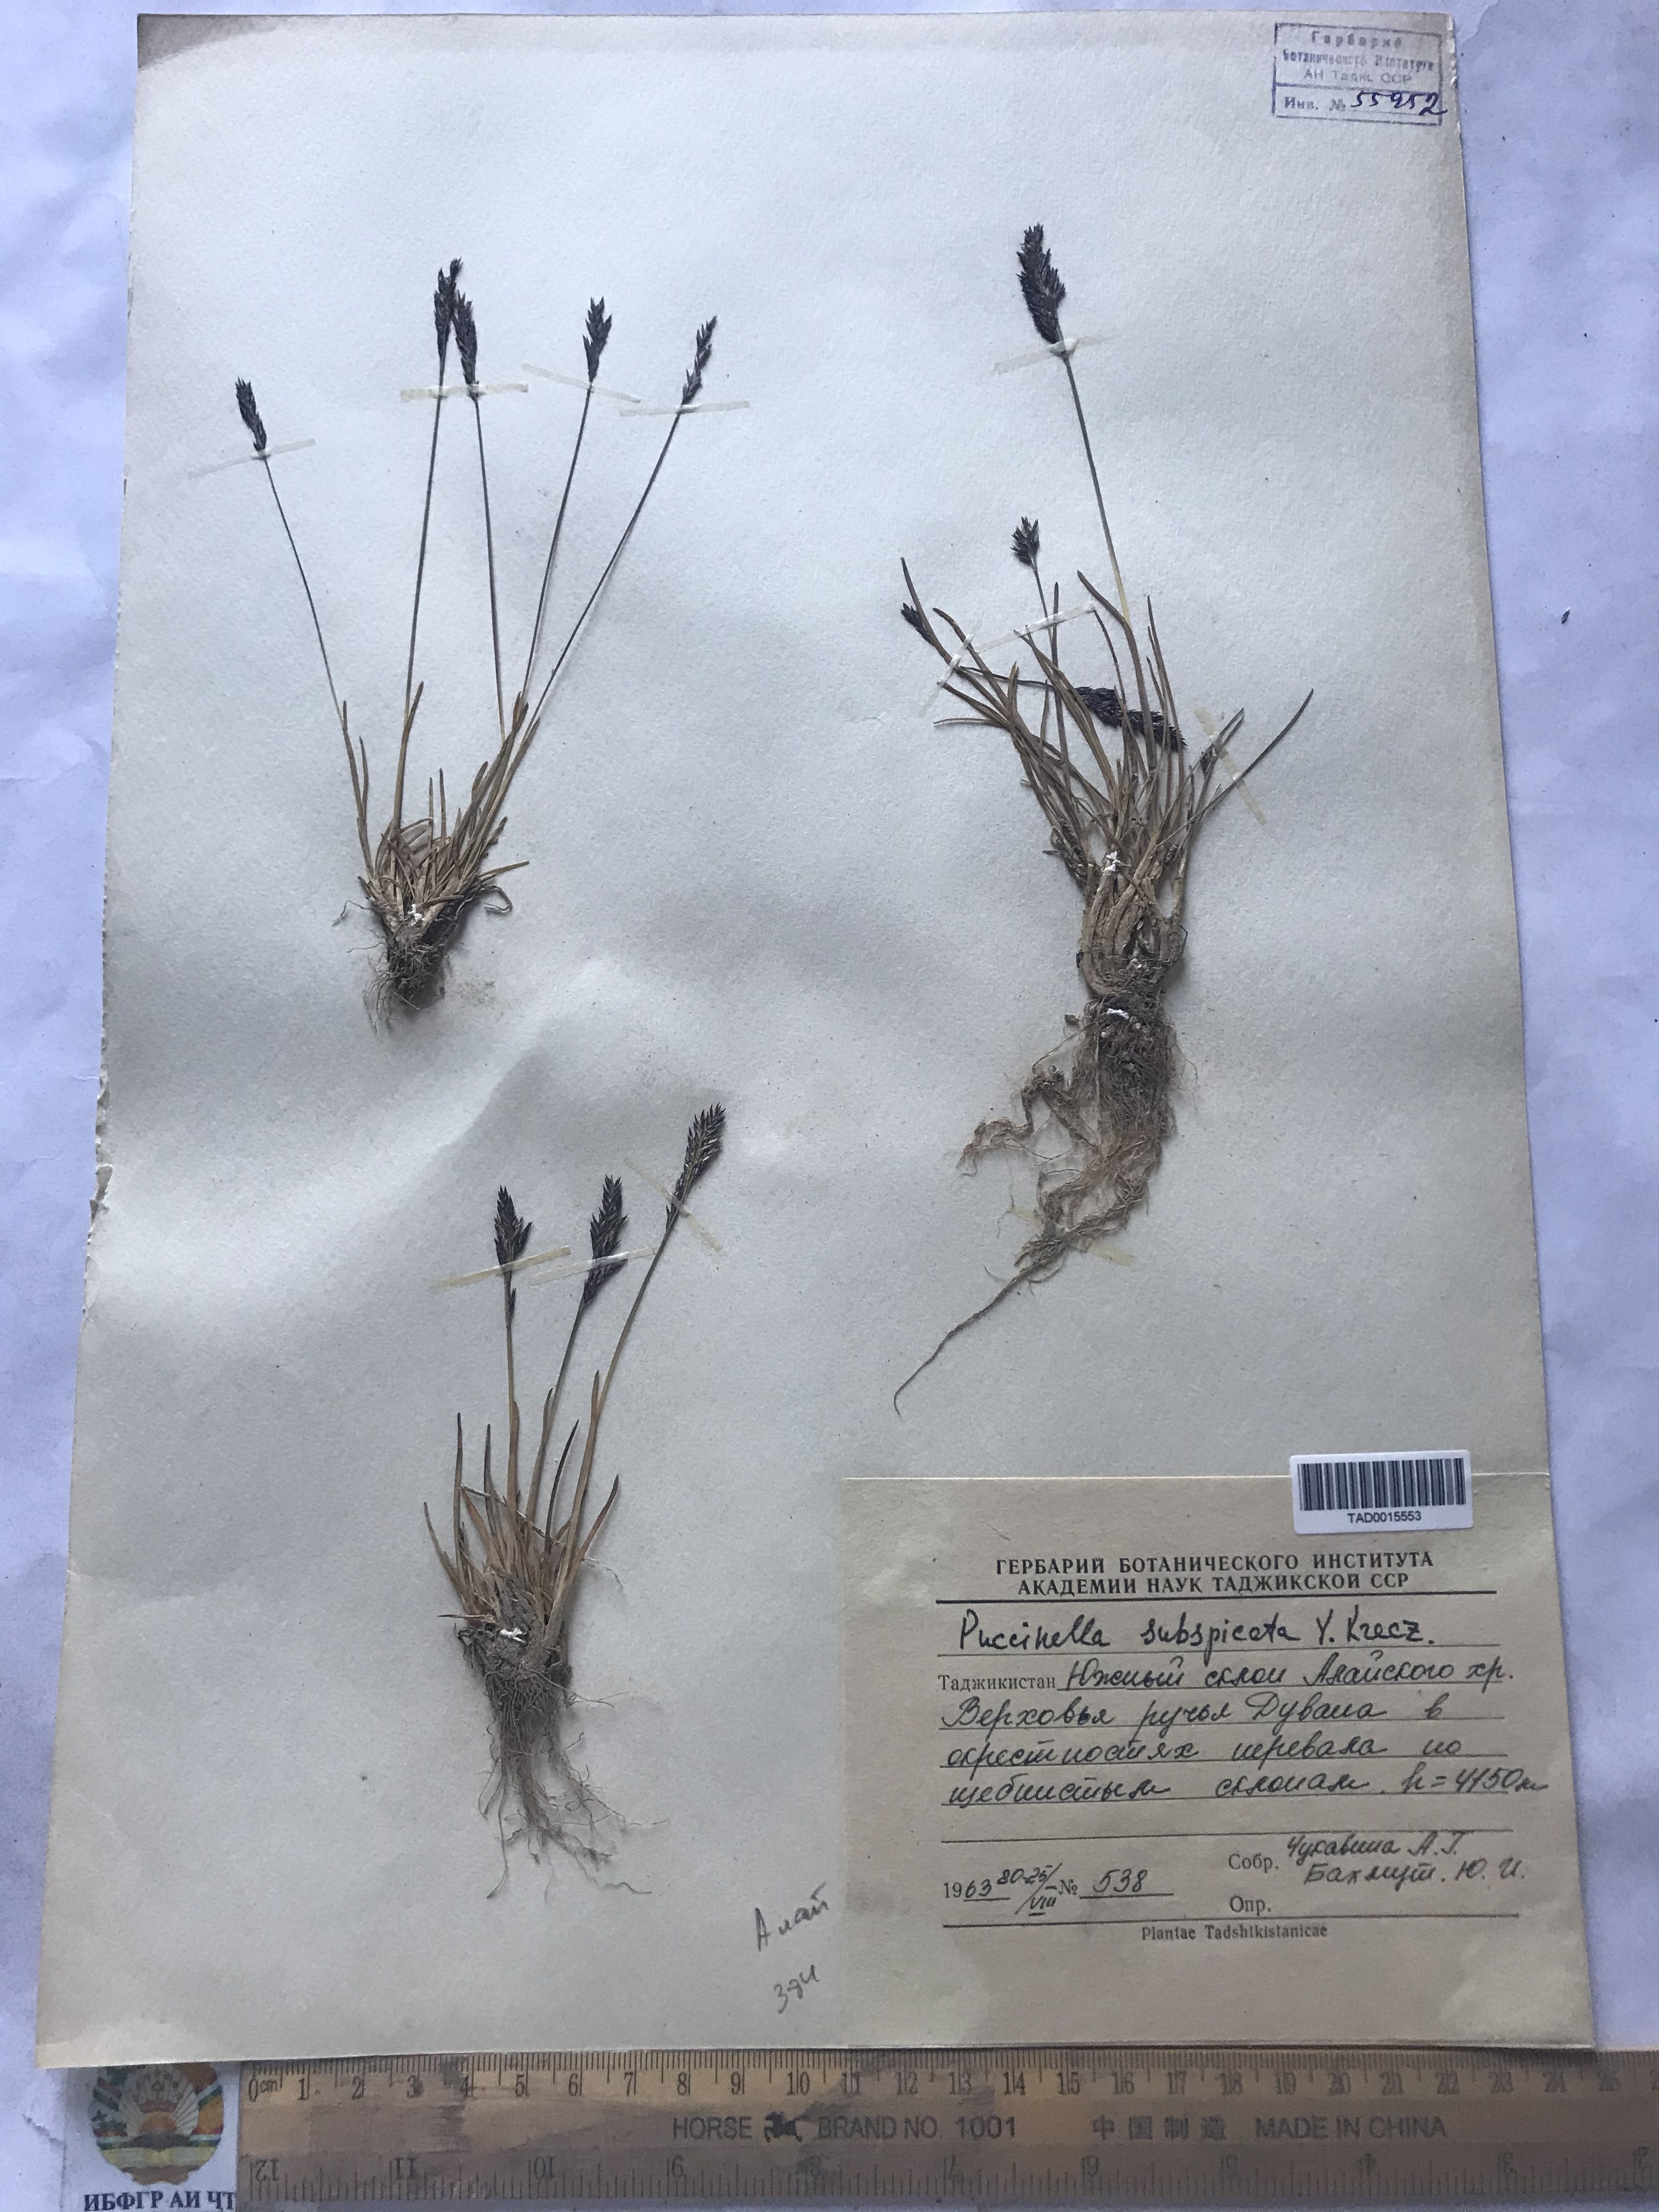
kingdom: Plantae
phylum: Tracheophyta
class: Liliopsida
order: Poales
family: Poaceae
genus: Puccinellia
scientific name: Puccinellia subspicata
